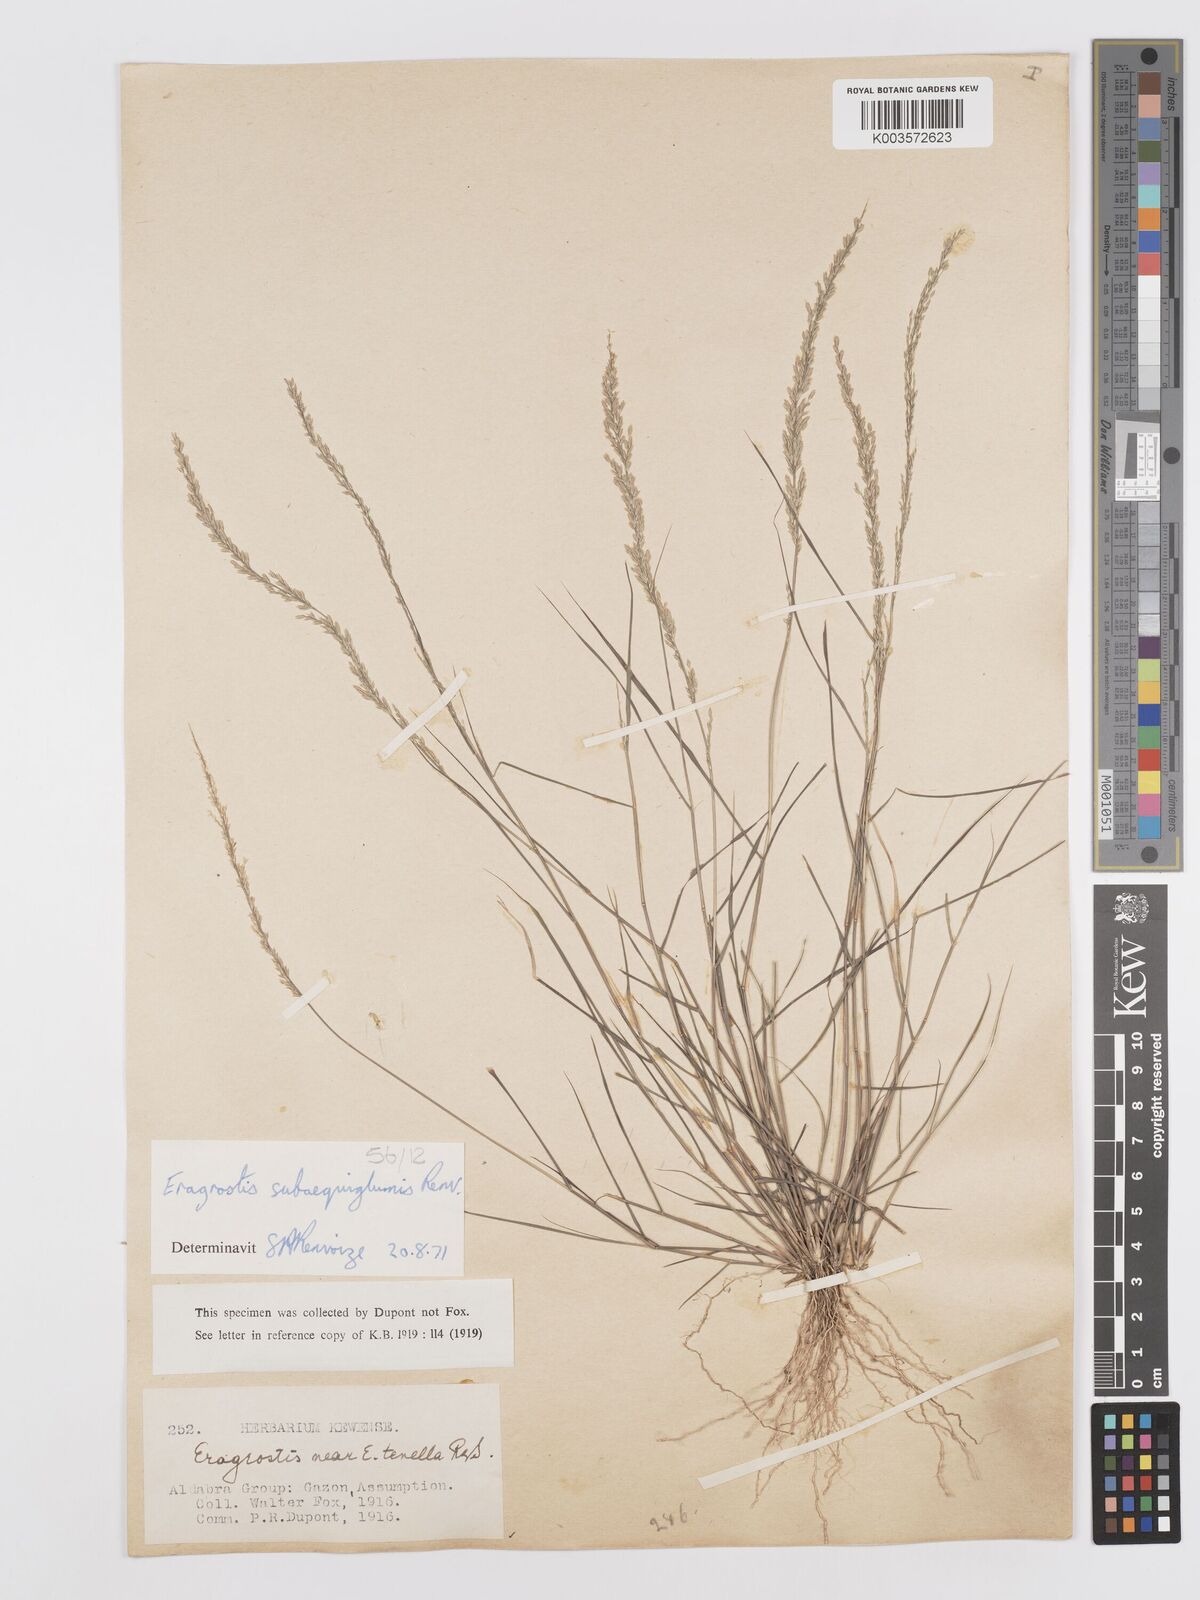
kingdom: Plantae
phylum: Tracheophyta
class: Liliopsida
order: Poales
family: Poaceae
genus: Eragrostis
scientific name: Eragrostis subaequiglumis
